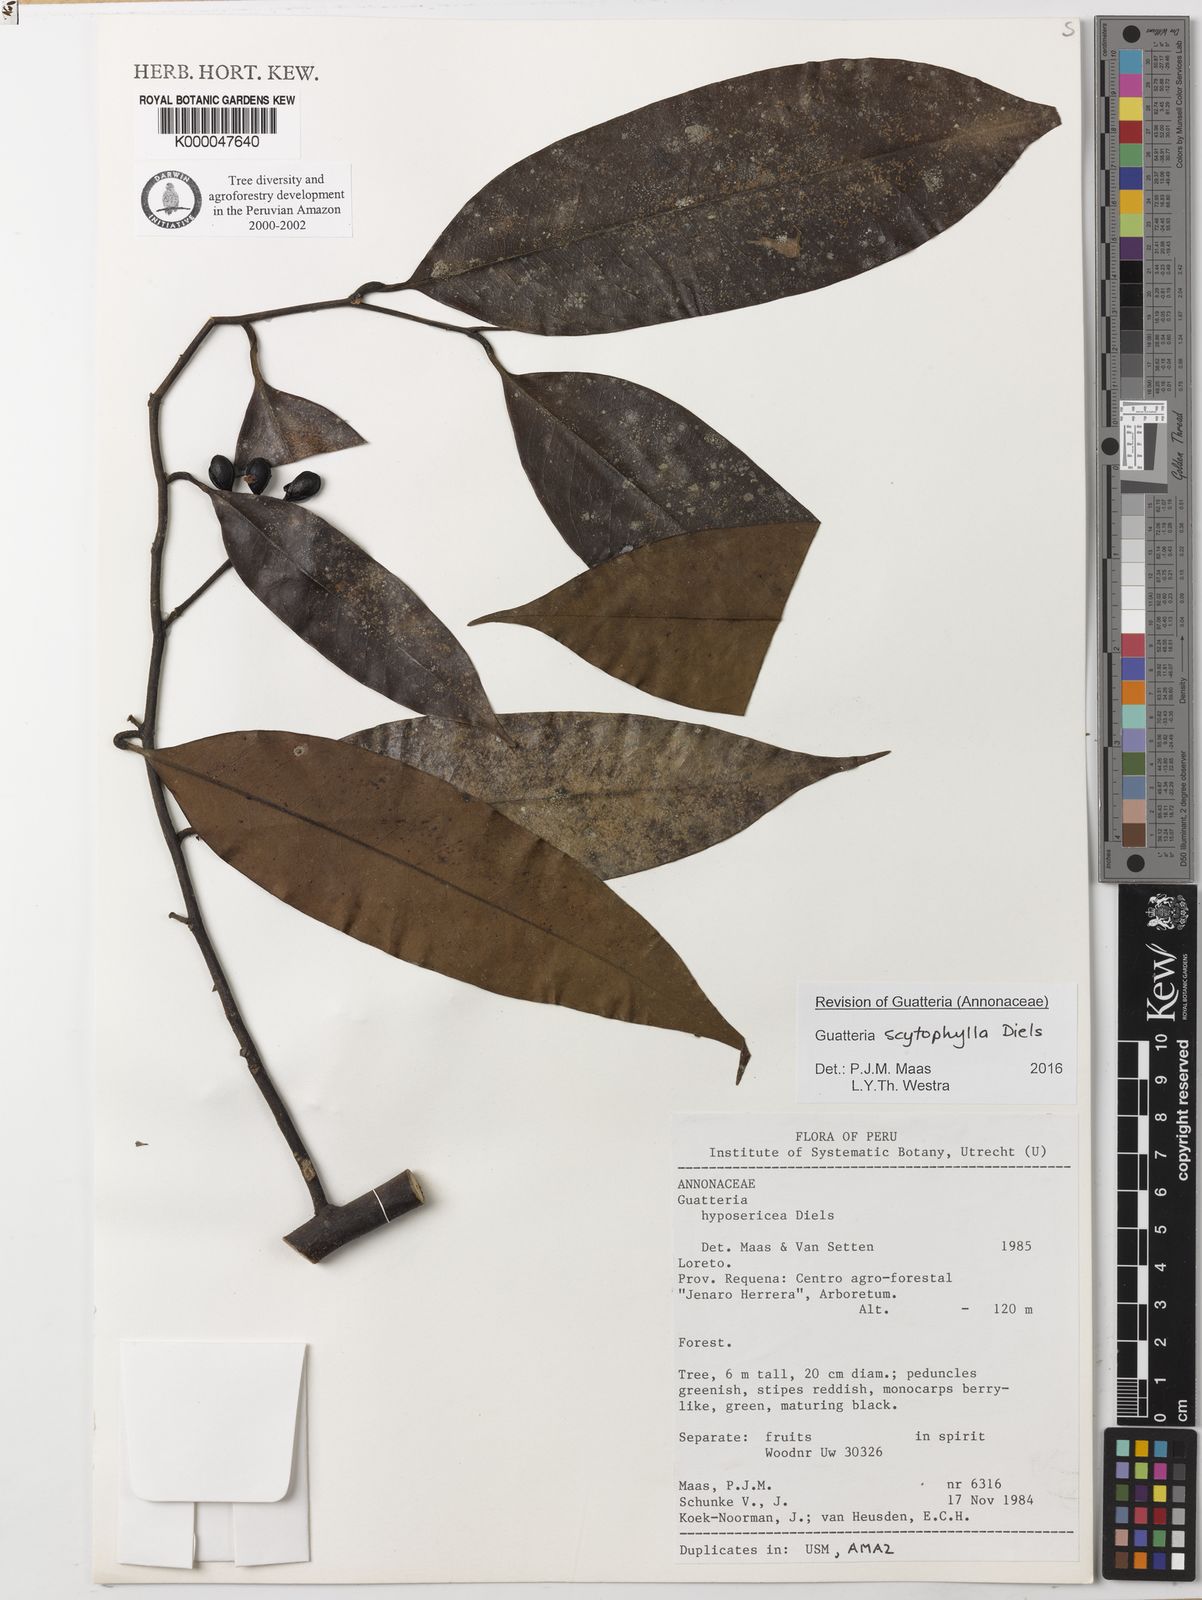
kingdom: Plantae
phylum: Tracheophyta
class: Magnoliopsida
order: Magnoliales
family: Annonaceae
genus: Guatteria
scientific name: Guatteria scytophylla
